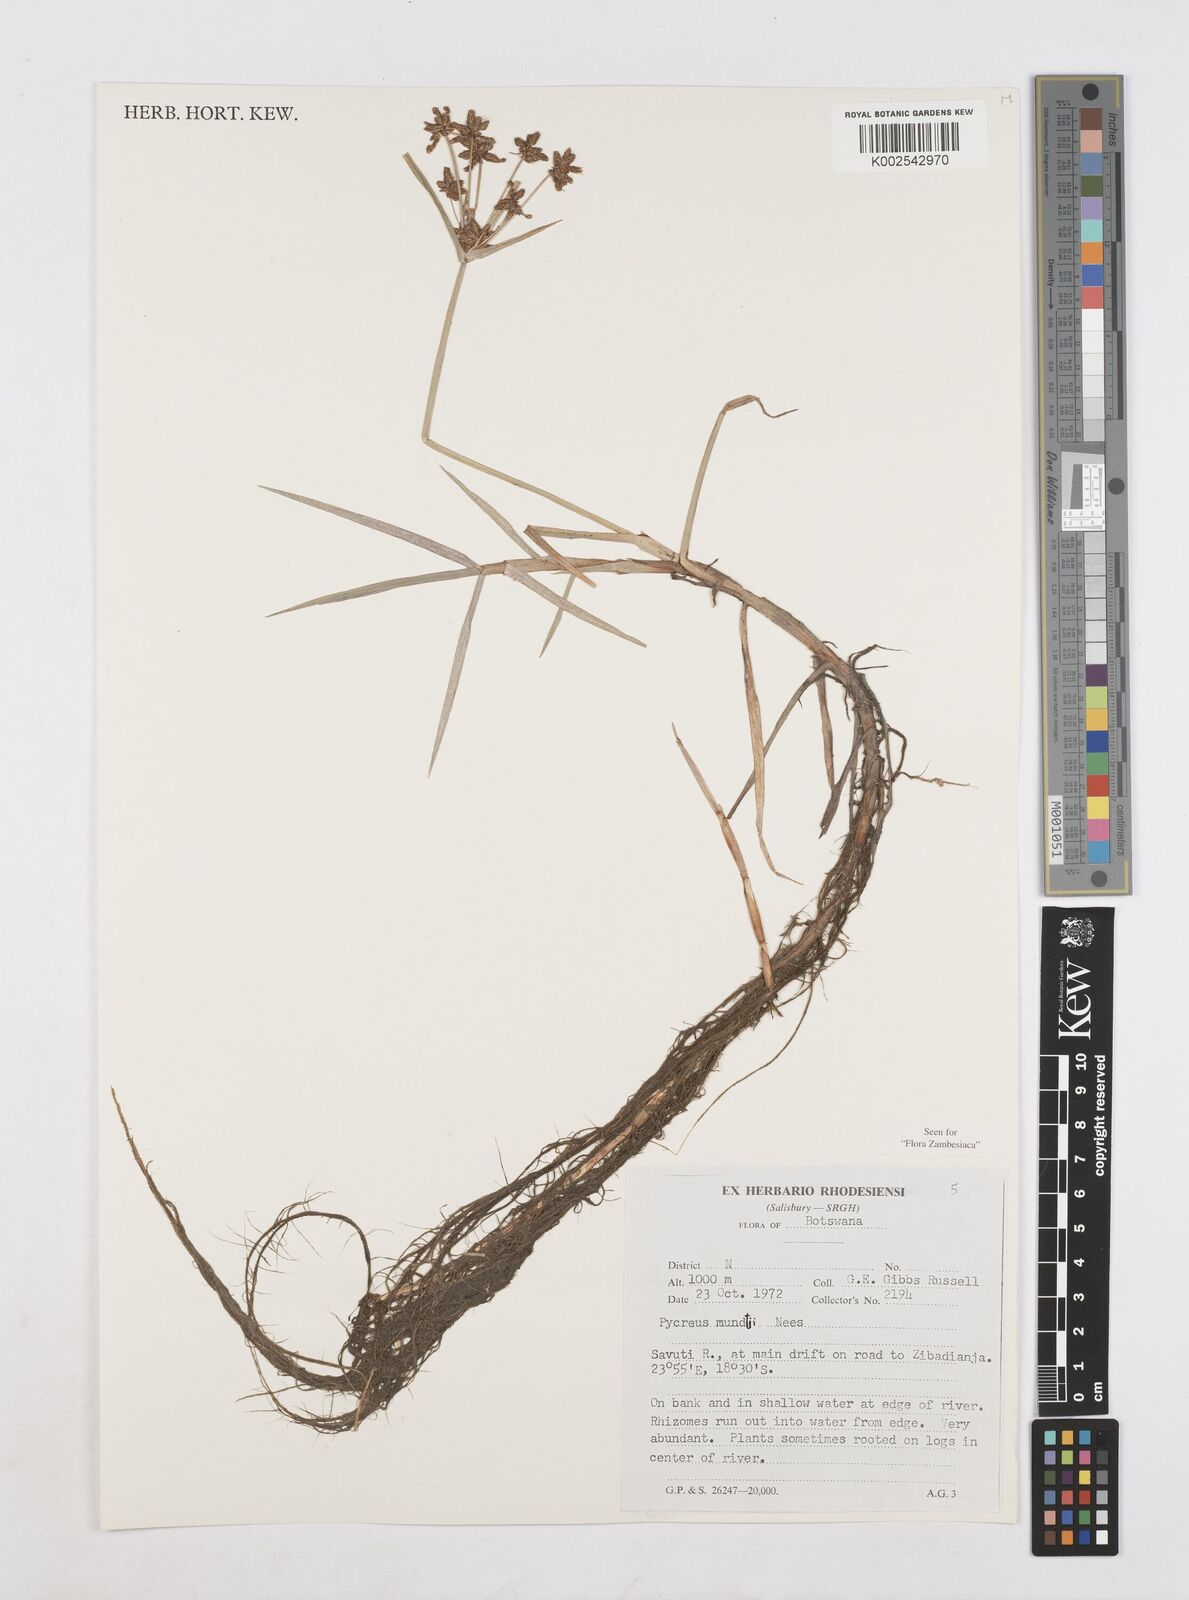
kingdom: Plantae
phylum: Tracheophyta
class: Liliopsida
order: Poales
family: Cyperaceae
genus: Cyperus
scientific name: Cyperus mundii
